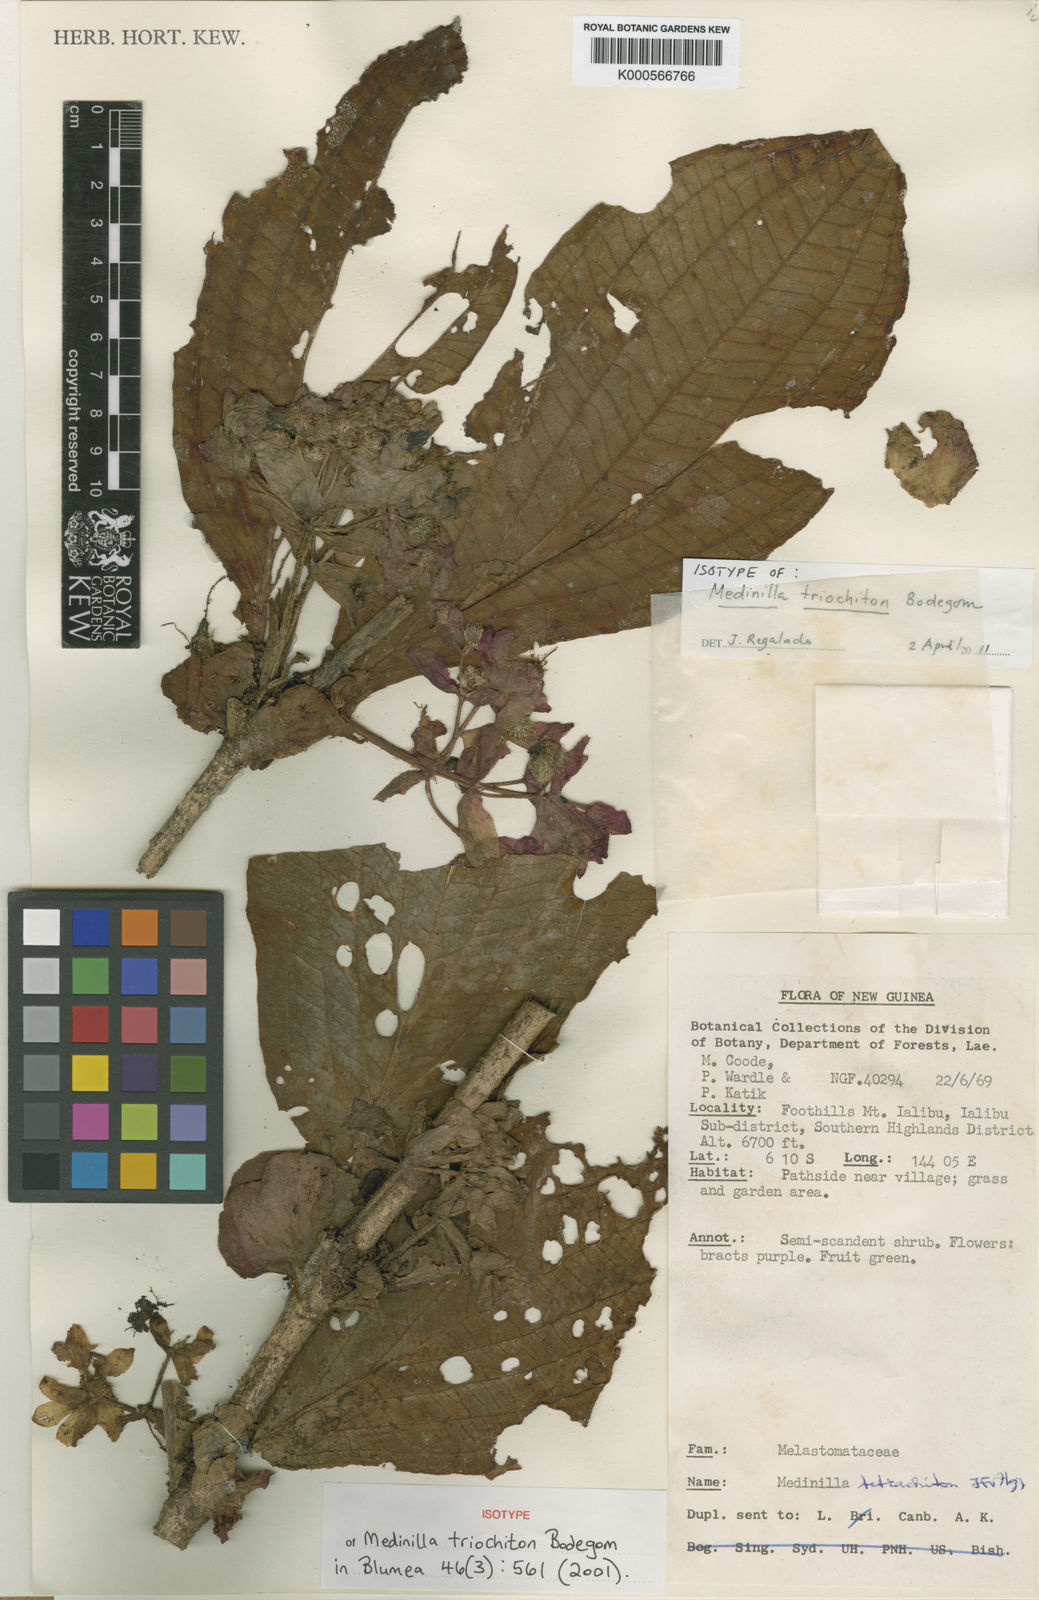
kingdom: Plantae
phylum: Tracheophyta
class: Magnoliopsida
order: Myrtales
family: Melastomataceae
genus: Medinilla
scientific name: Medinilla triochiton
